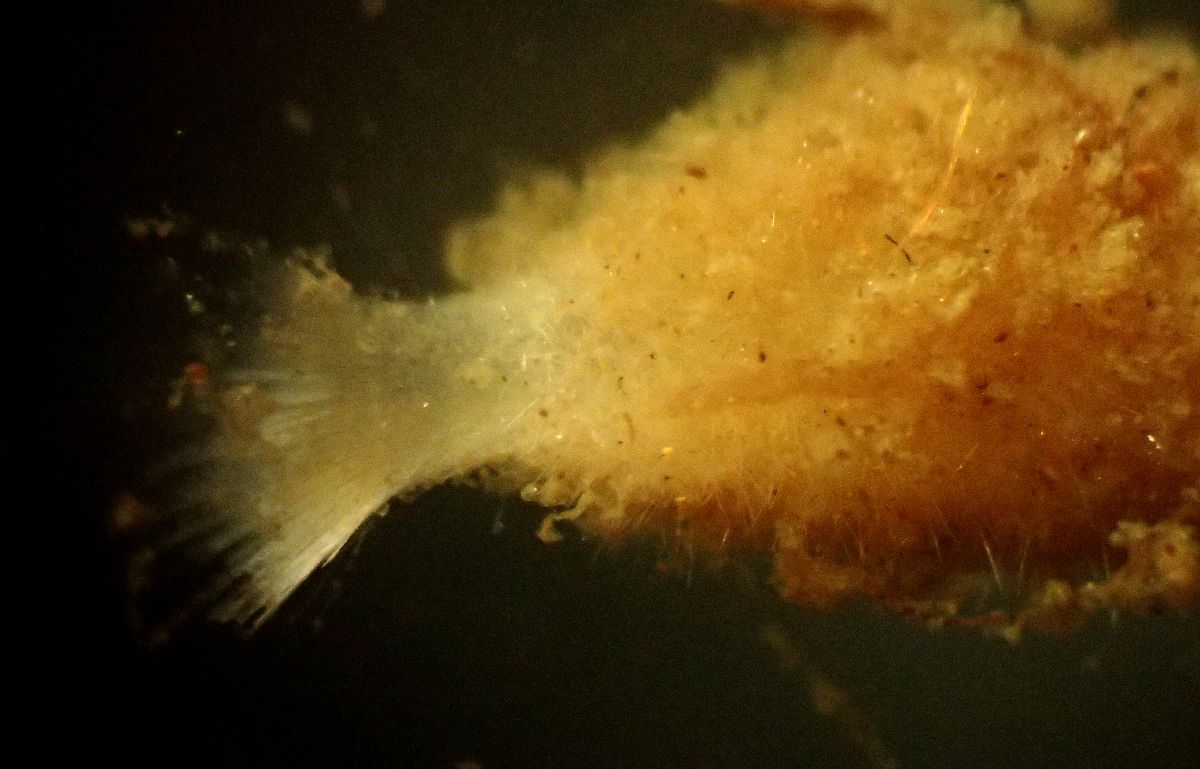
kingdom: Animalia
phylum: Porifera
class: Calcarea
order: Leucosolenida
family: Syconidae
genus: Sycon
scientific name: Sycon
